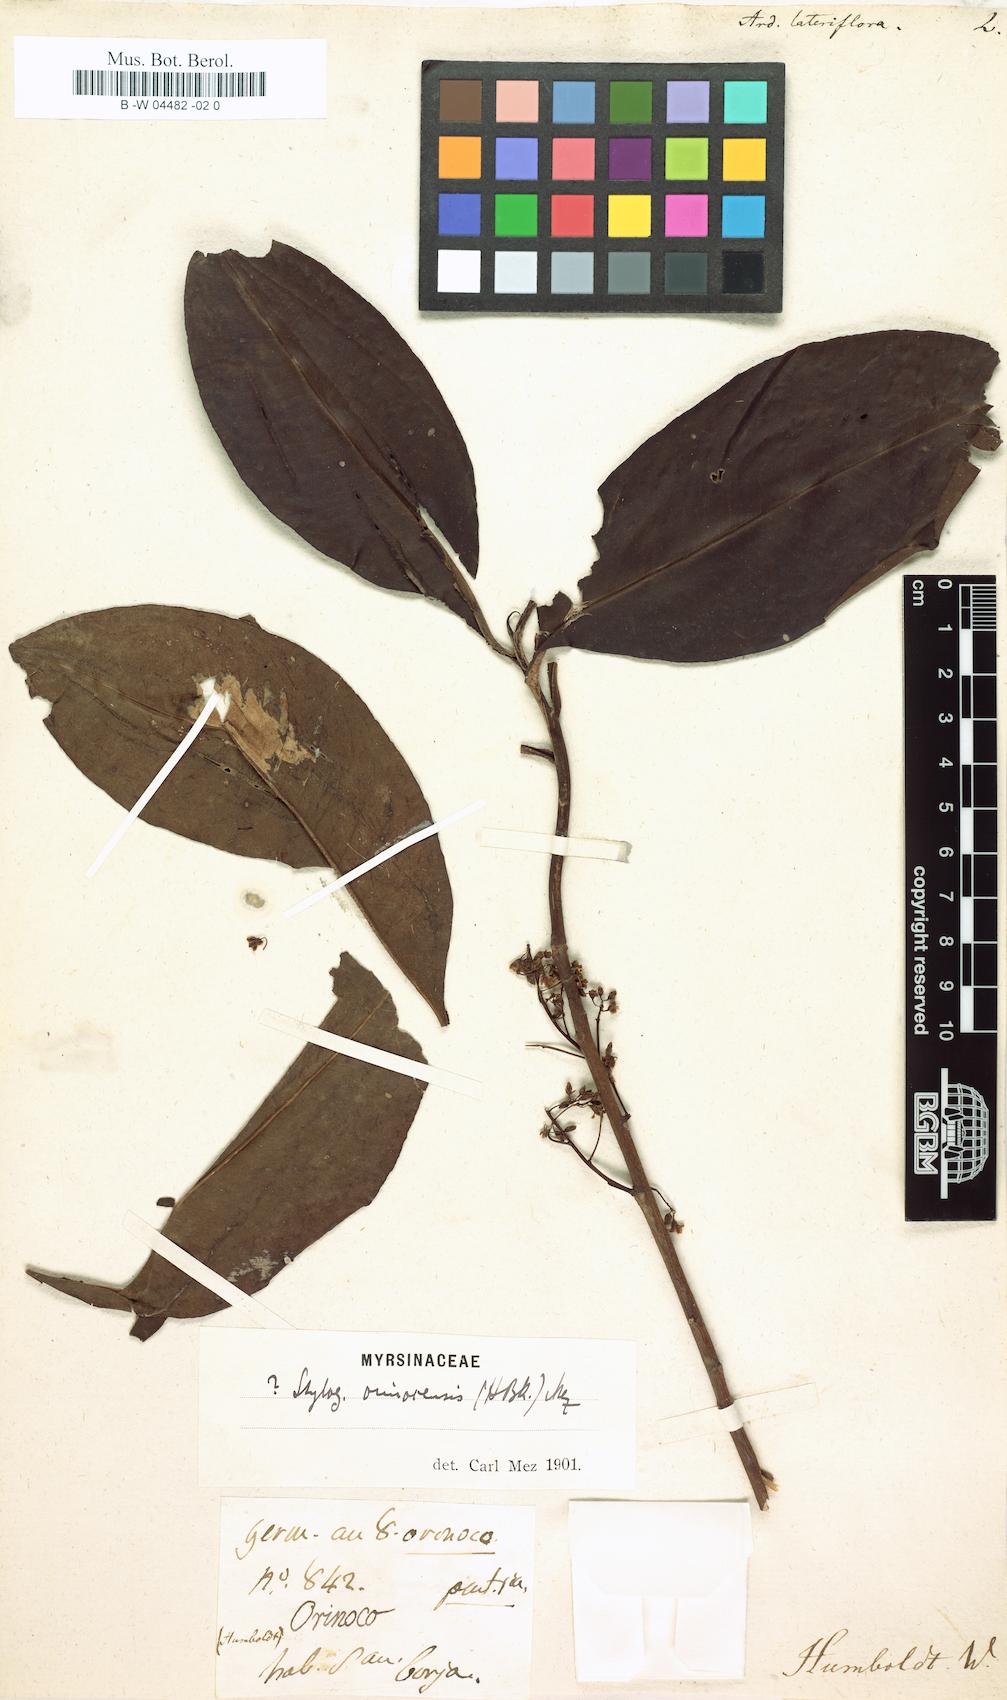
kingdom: Plantae
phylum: Tracheophyta
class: Magnoliopsida
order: Ericales
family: Primulaceae
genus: Stylogyne
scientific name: Stylogyne lateriflora
